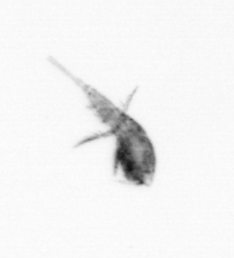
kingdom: Animalia
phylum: Arthropoda
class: Copepoda
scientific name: Copepoda
